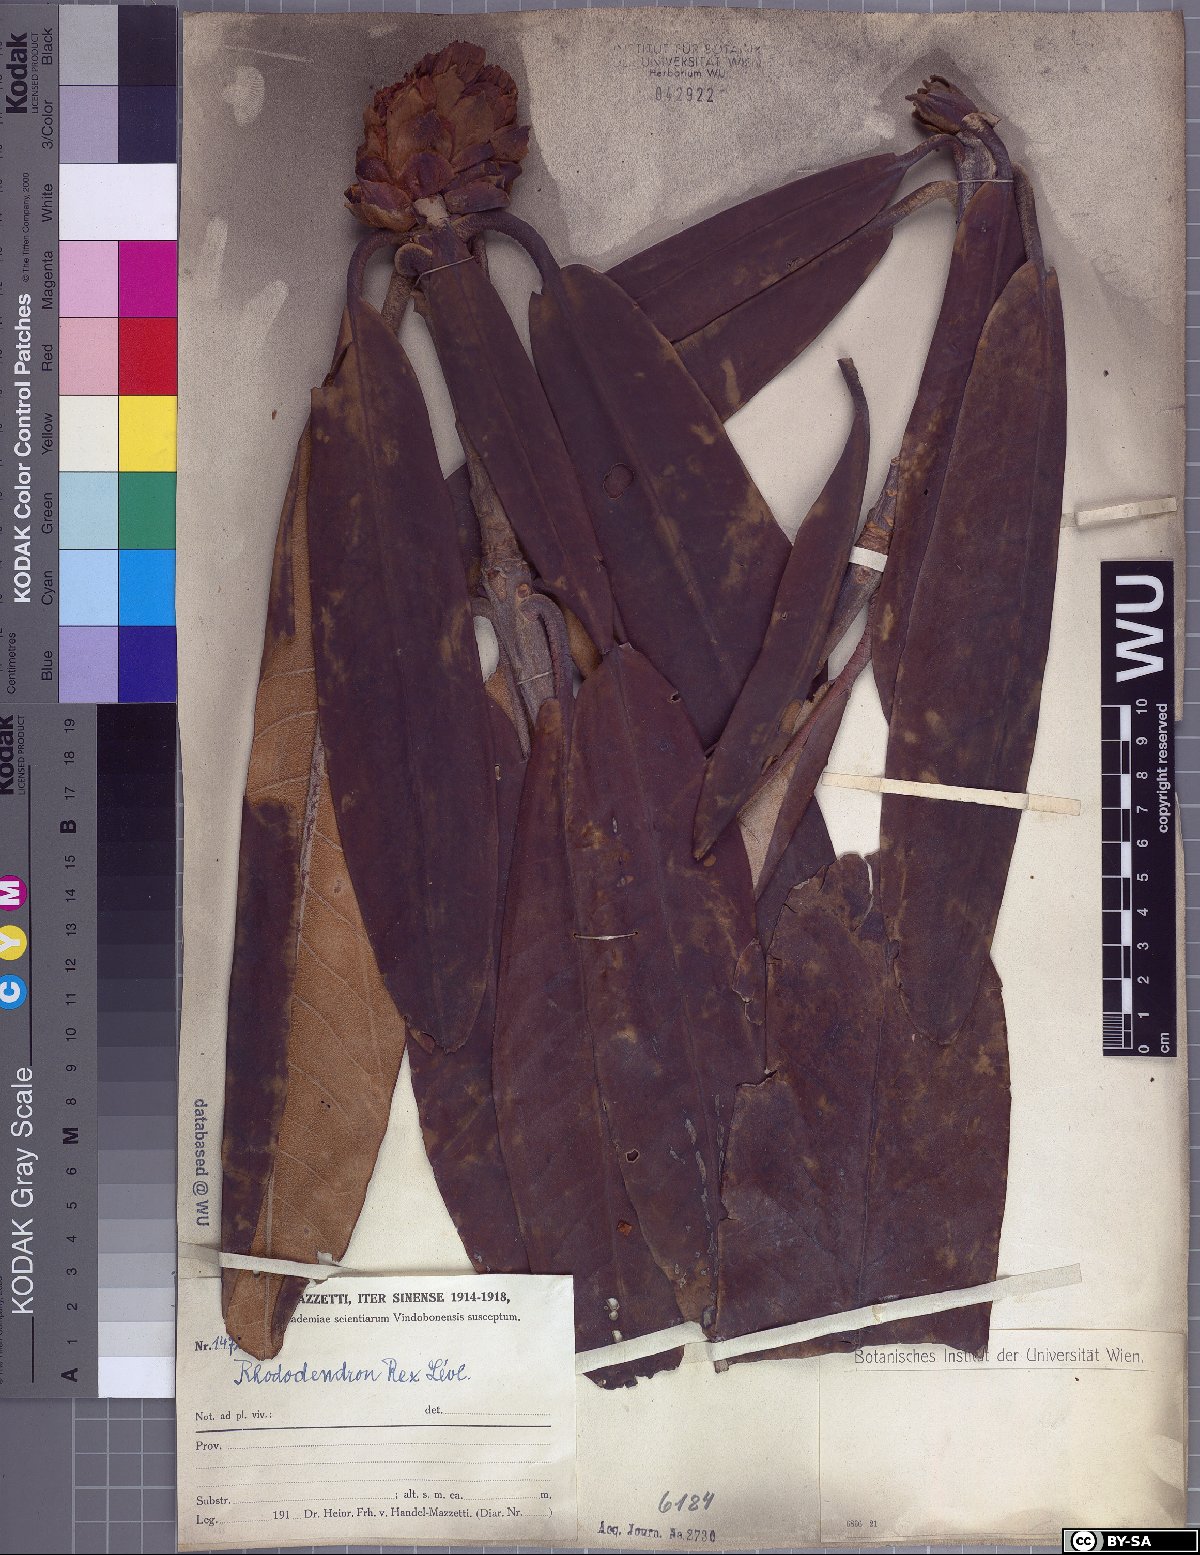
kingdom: Plantae
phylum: Tracheophyta
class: Magnoliopsida
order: Ericales
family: Ericaceae
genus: Rhododendron
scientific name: Rhododendron rex
